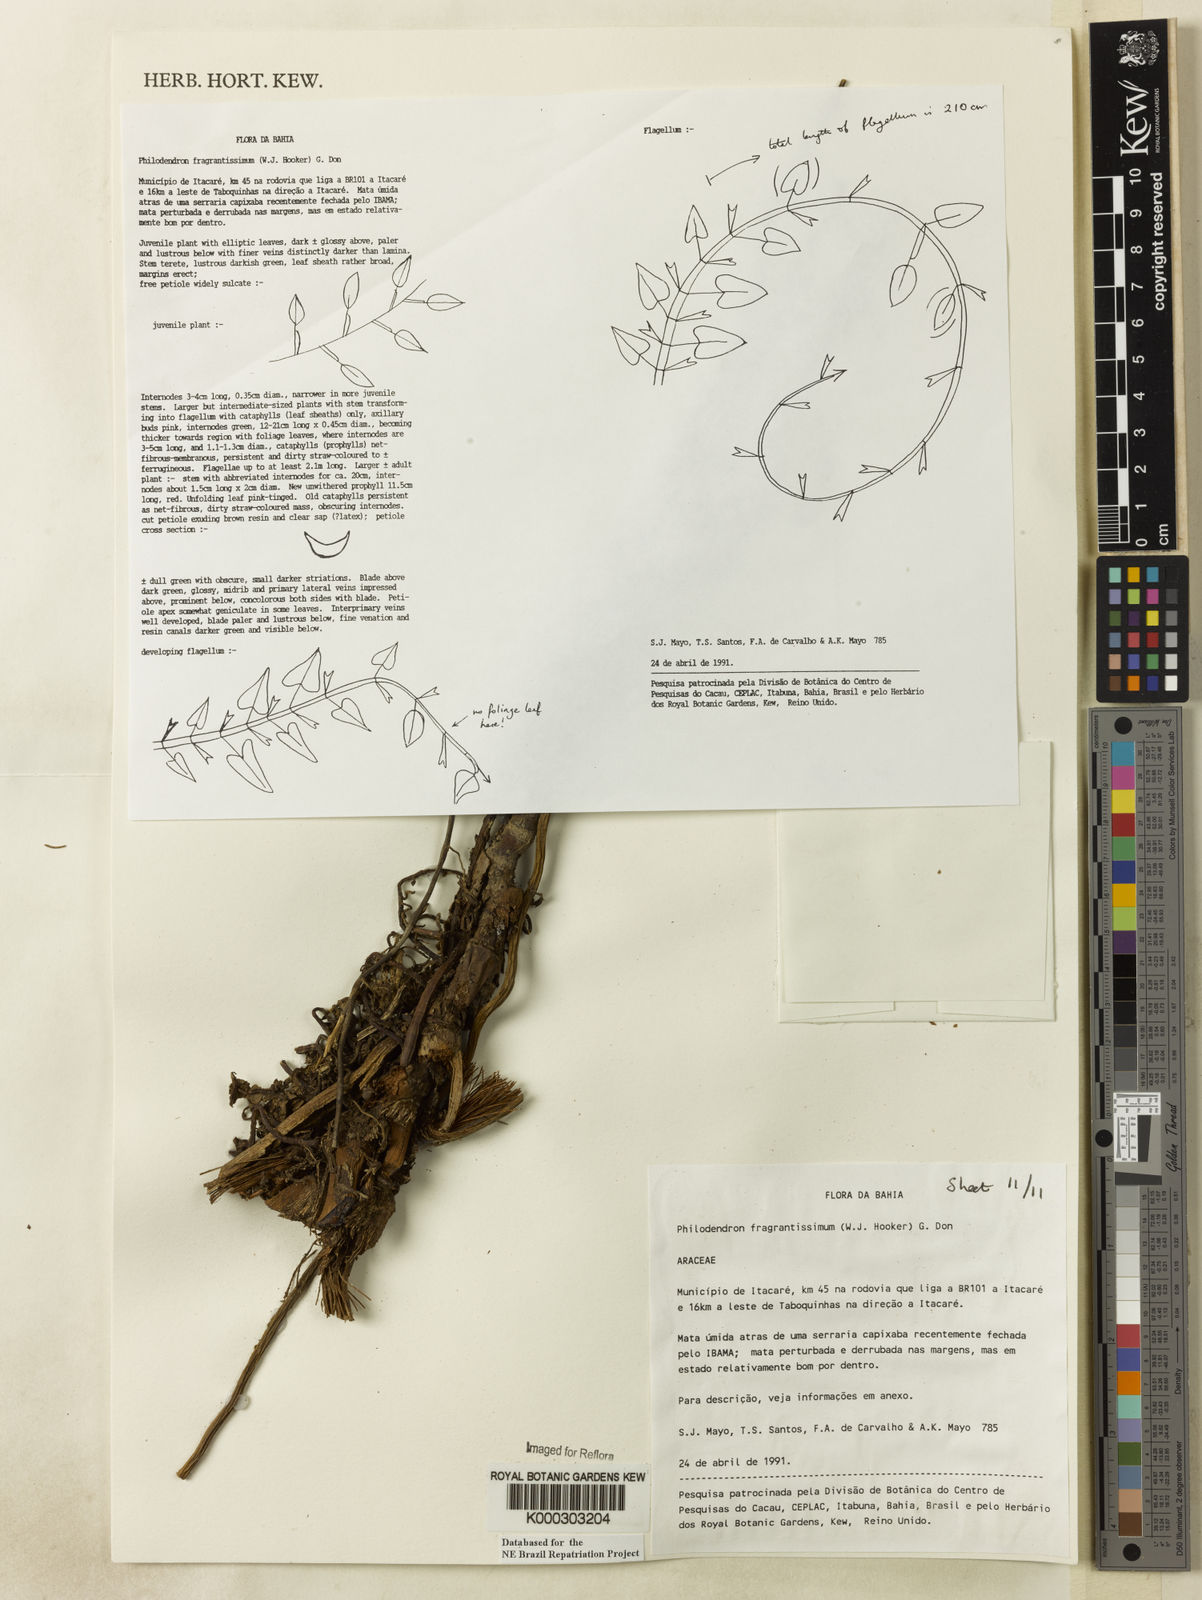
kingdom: Plantae
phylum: Tracheophyta
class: Liliopsida
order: Alismatales
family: Araceae
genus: Philodendron
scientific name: Philodendron fragrantissimum
